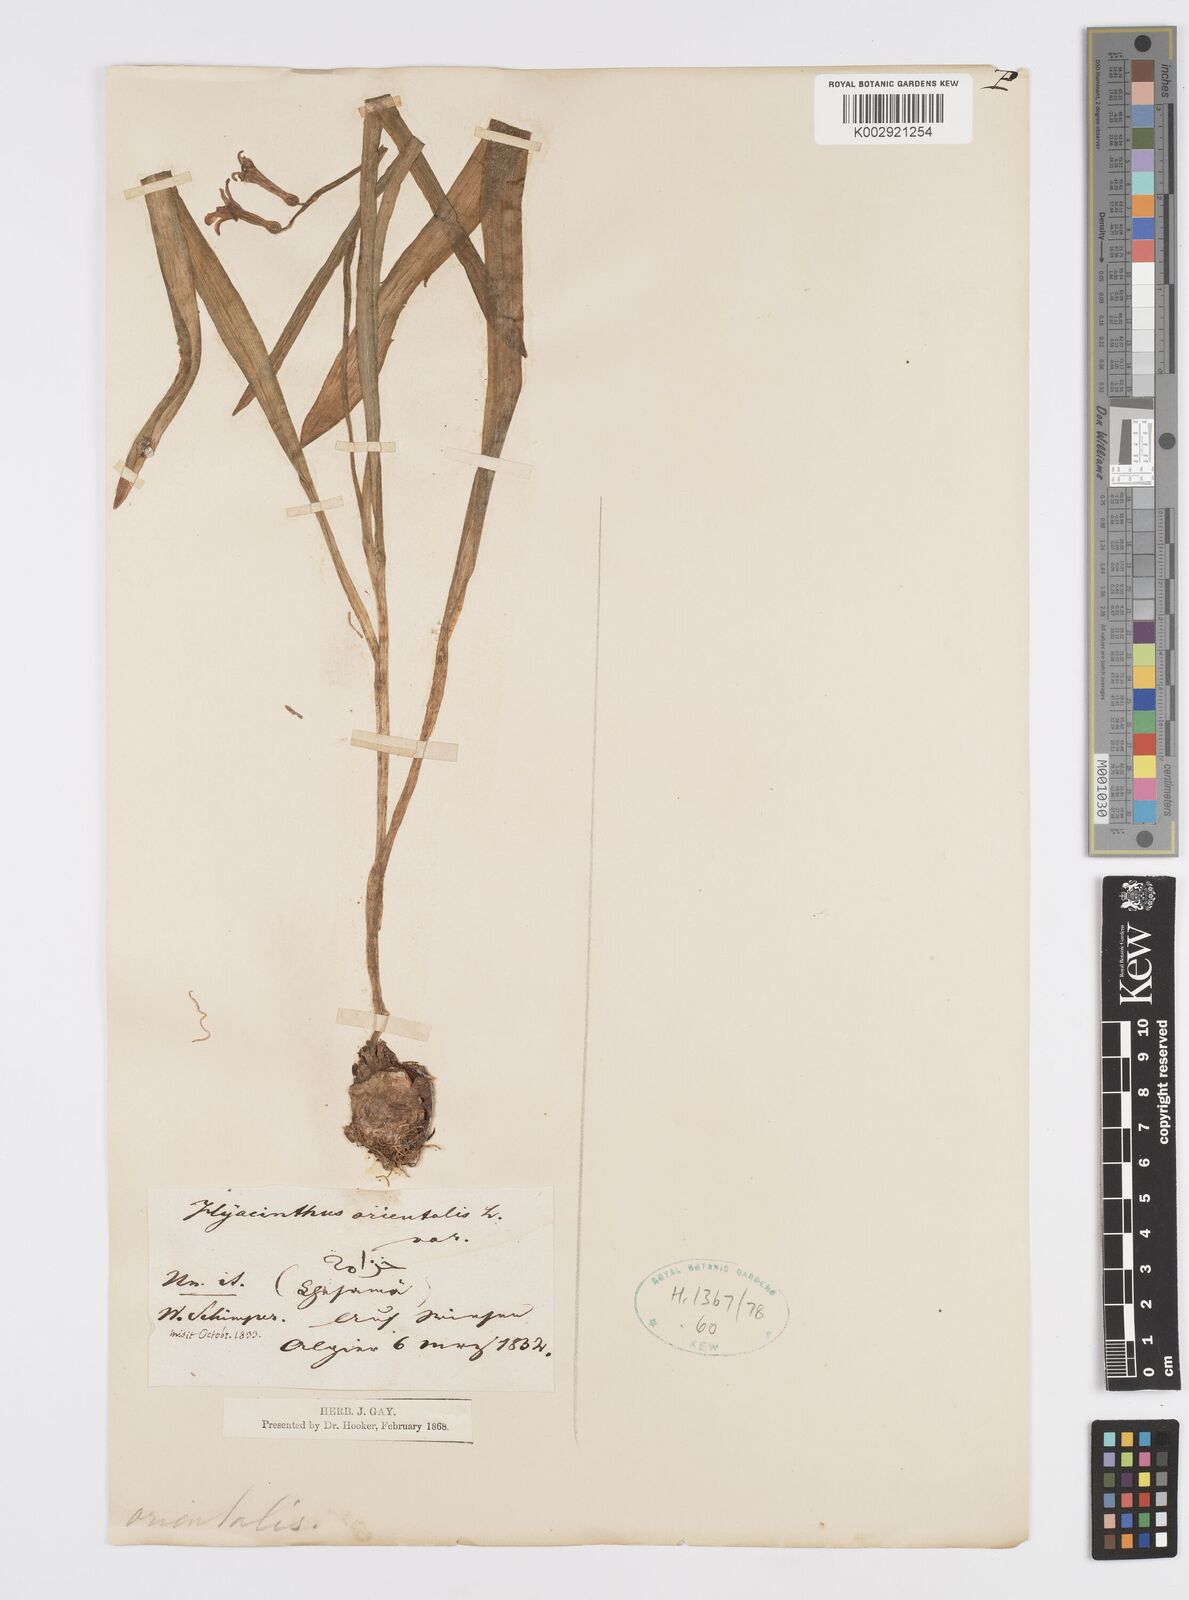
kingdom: Plantae
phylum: Tracheophyta
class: Liliopsida
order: Asparagales
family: Asparagaceae
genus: Hyacinthus
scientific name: Hyacinthus orientalis
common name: Hyacinth
